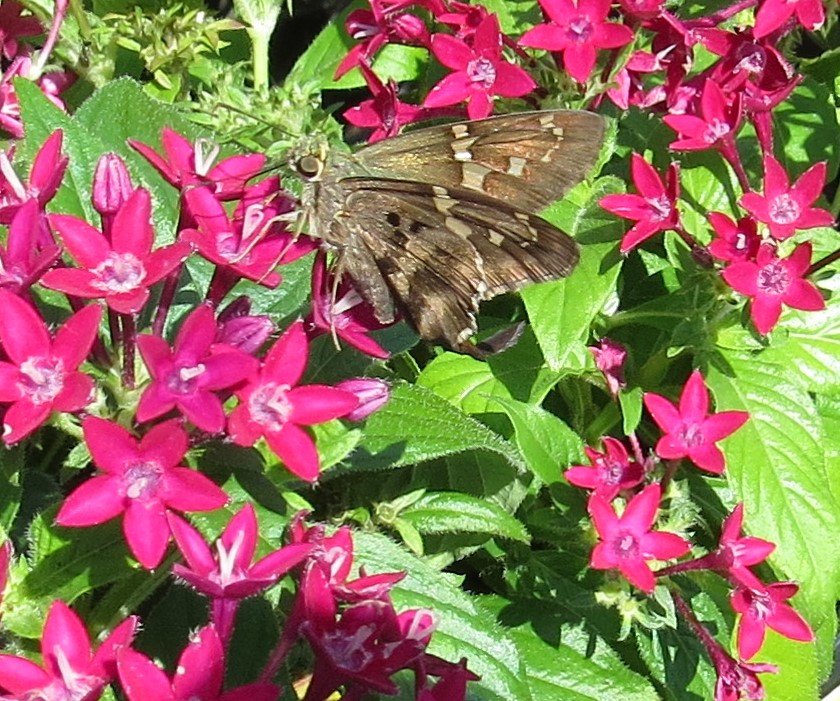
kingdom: Animalia
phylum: Arthropoda
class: Insecta
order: Lepidoptera
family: Hesperiidae
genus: Urbanus
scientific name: Urbanus proteus
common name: Long-tailed Skipper
